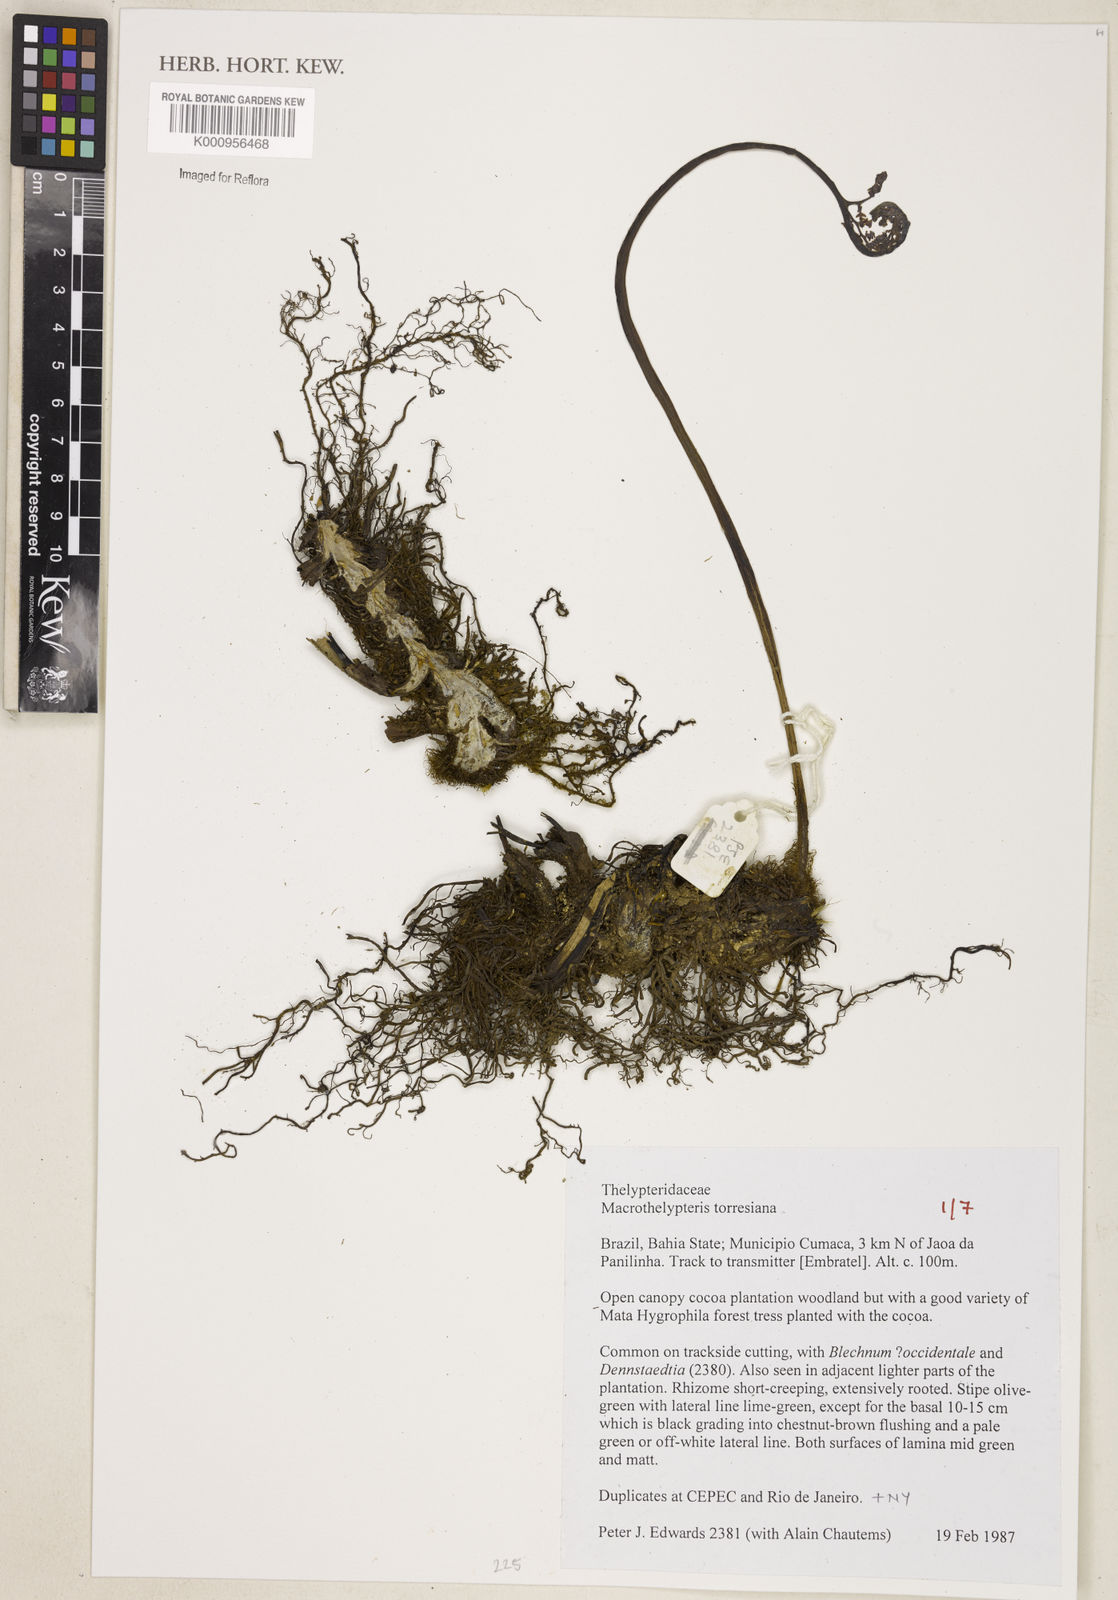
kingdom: Plantae
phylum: Tracheophyta
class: Polypodiopsida
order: Polypodiales
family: Thelypteridaceae
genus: Macrothelypteris
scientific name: Macrothelypteris torresiana
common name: Swordfern
